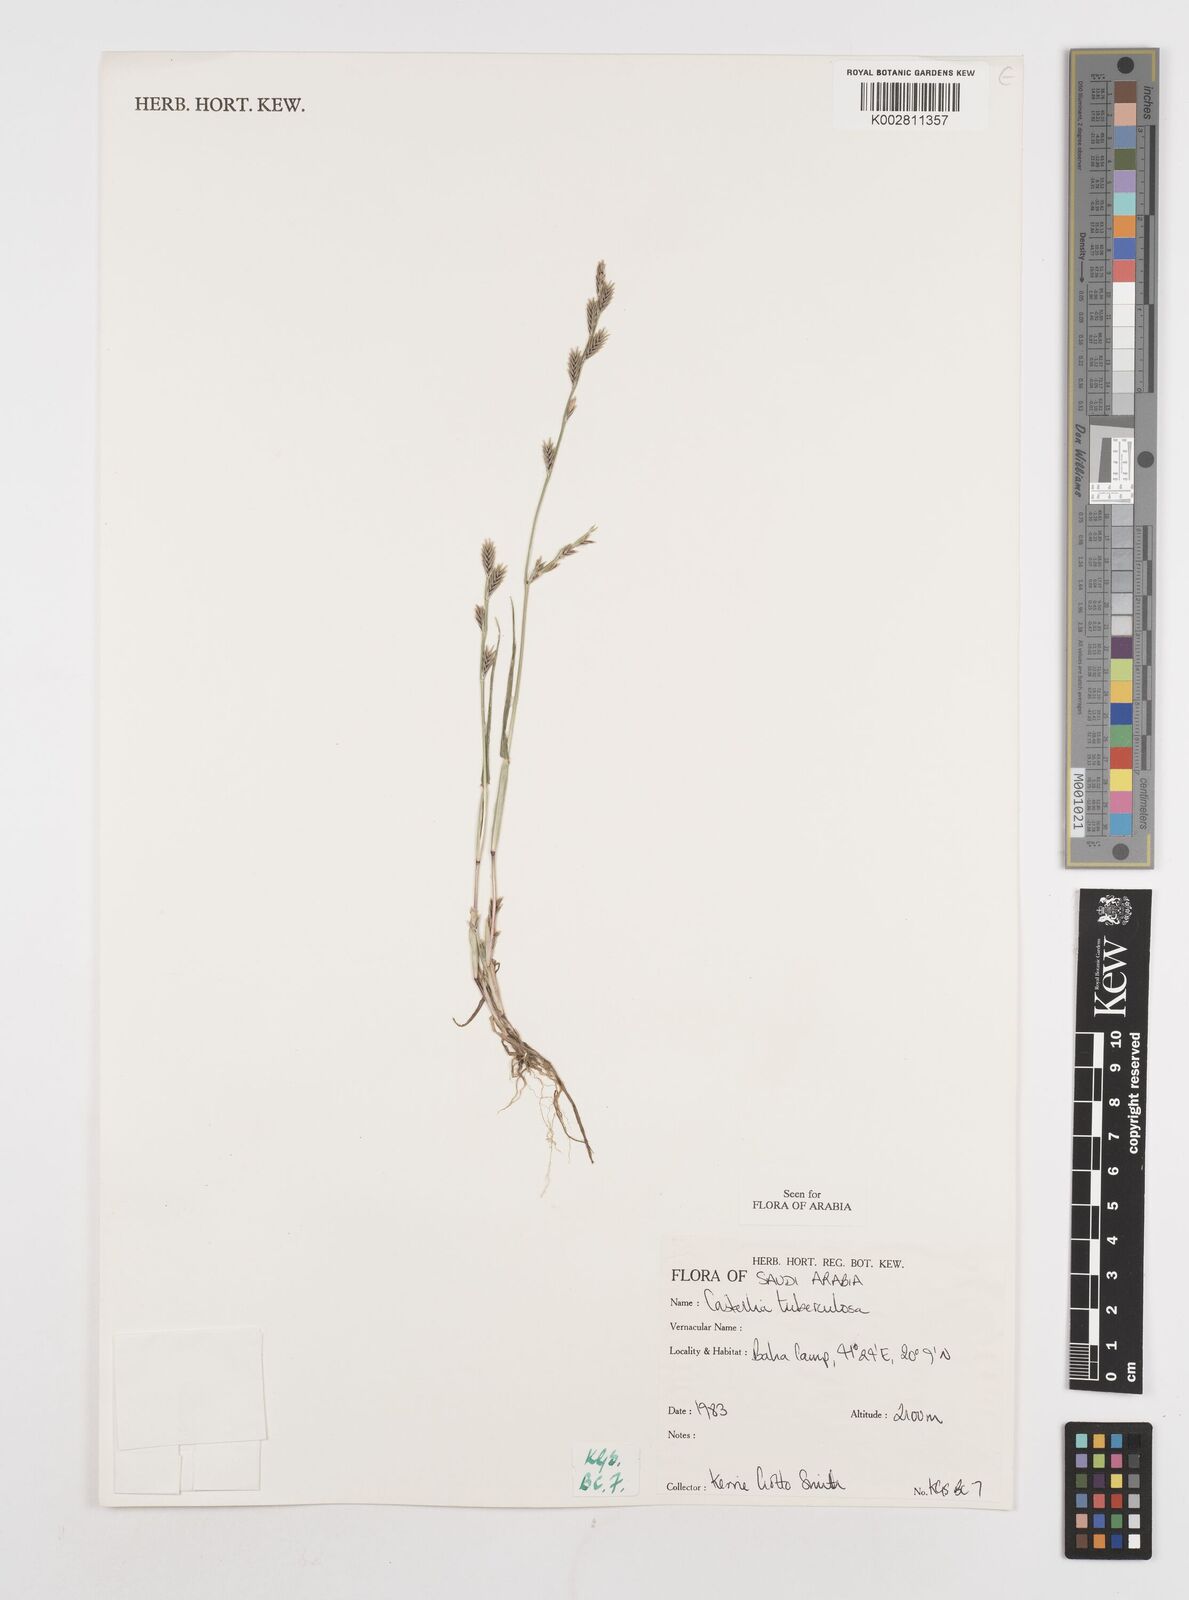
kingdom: Plantae
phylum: Tracheophyta
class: Liliopsida
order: Poales
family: Poaceae
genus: Castellia
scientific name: Castellia tuberculosa
